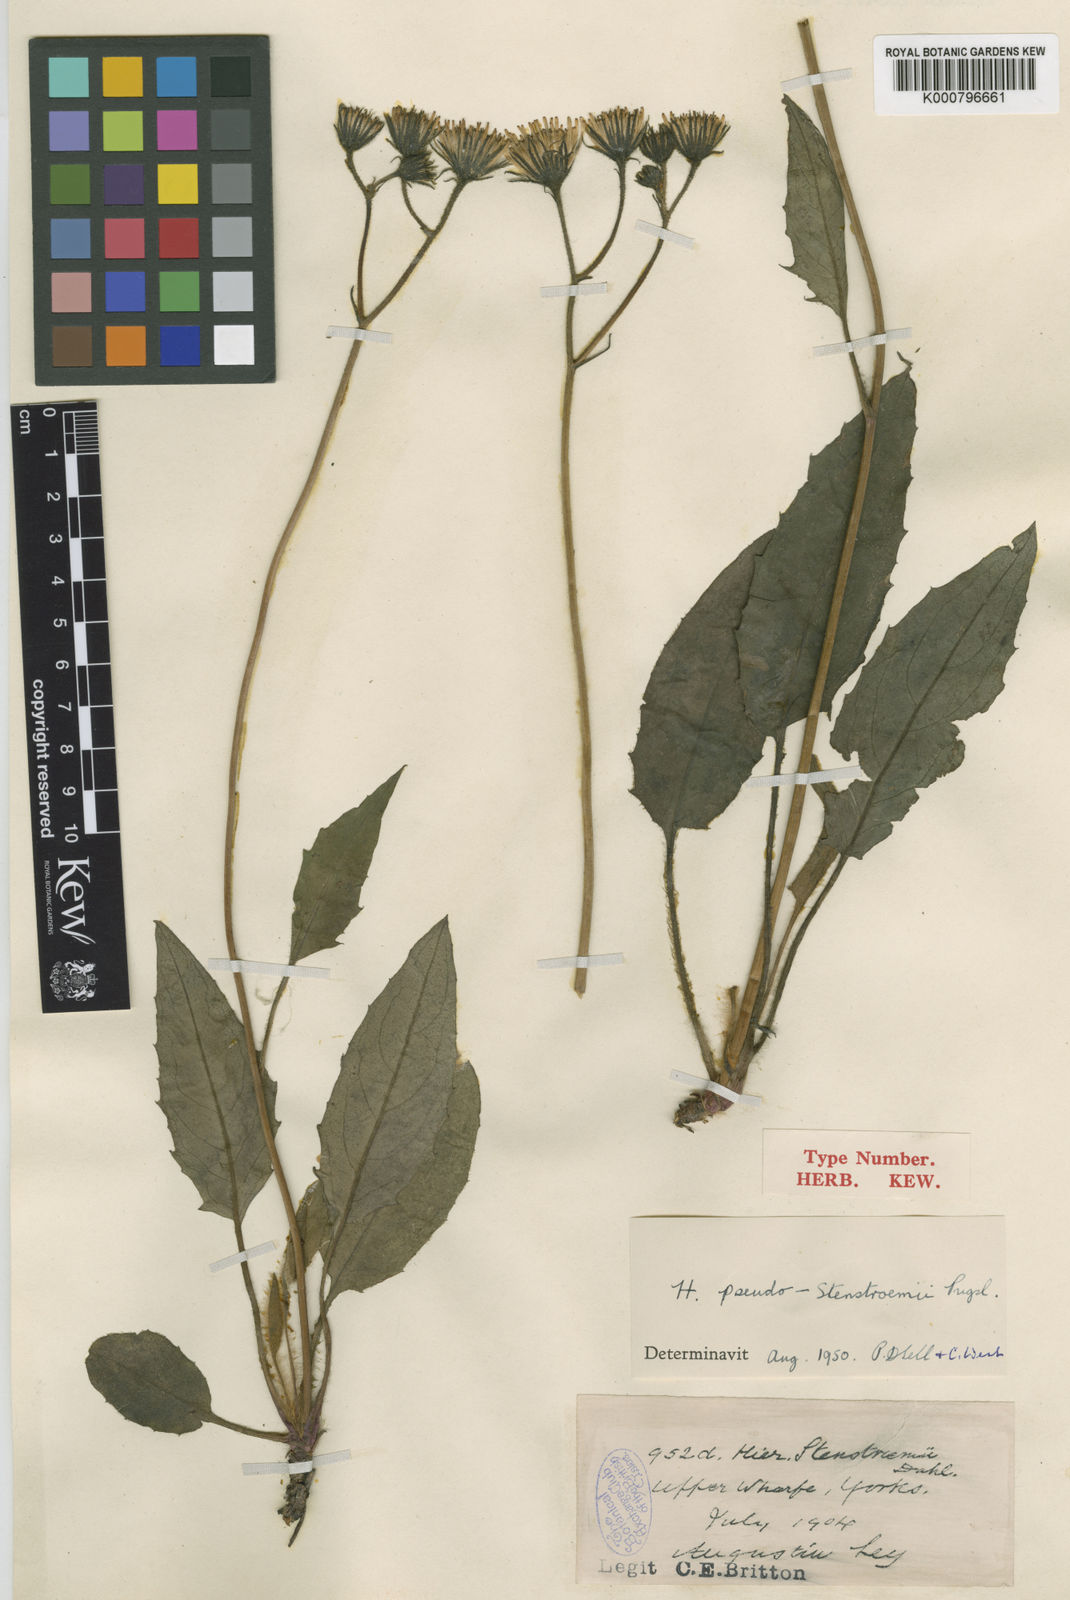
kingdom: Plantae
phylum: Tracheophyta
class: Magnoliopsida
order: Asterales
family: Asteraceae
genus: Hieracium
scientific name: Hieracium stenstroemii
